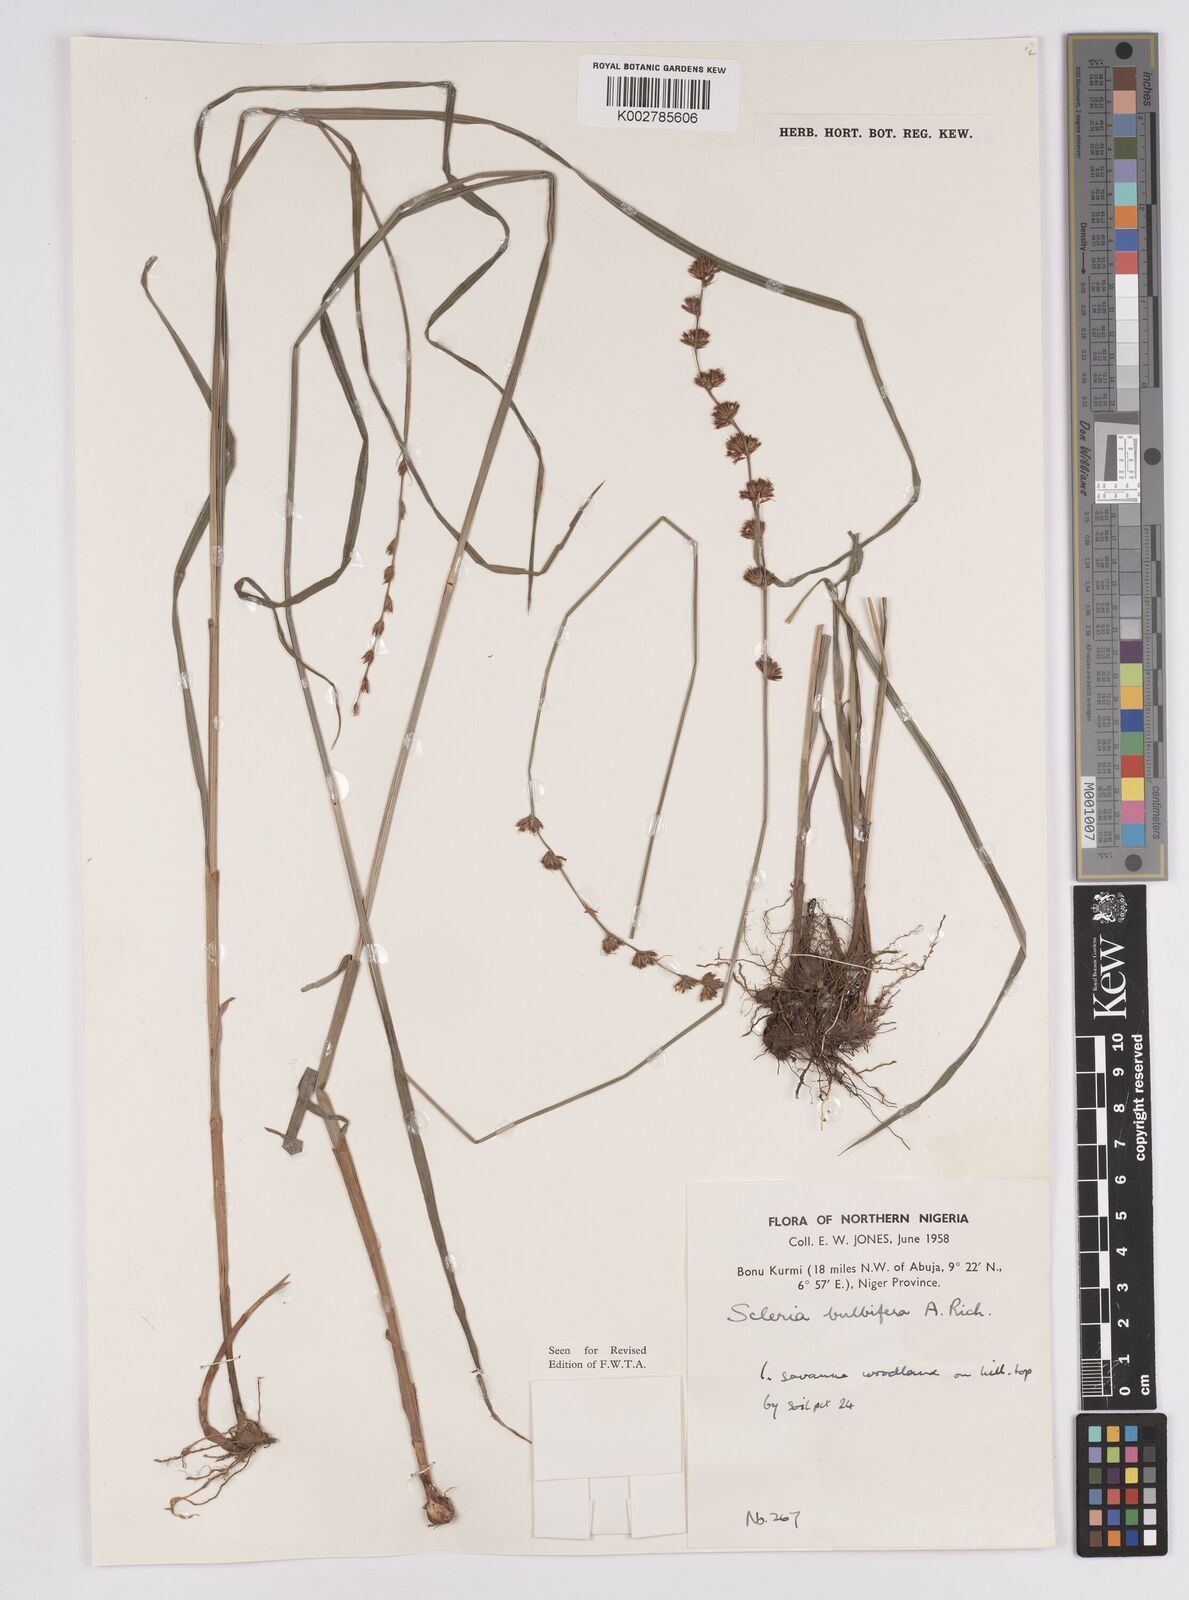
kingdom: Plantae
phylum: Tracheophyta
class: Liliopsida
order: Poales
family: Cyperaceae
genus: Scleria
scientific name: Scleria bulbifera
